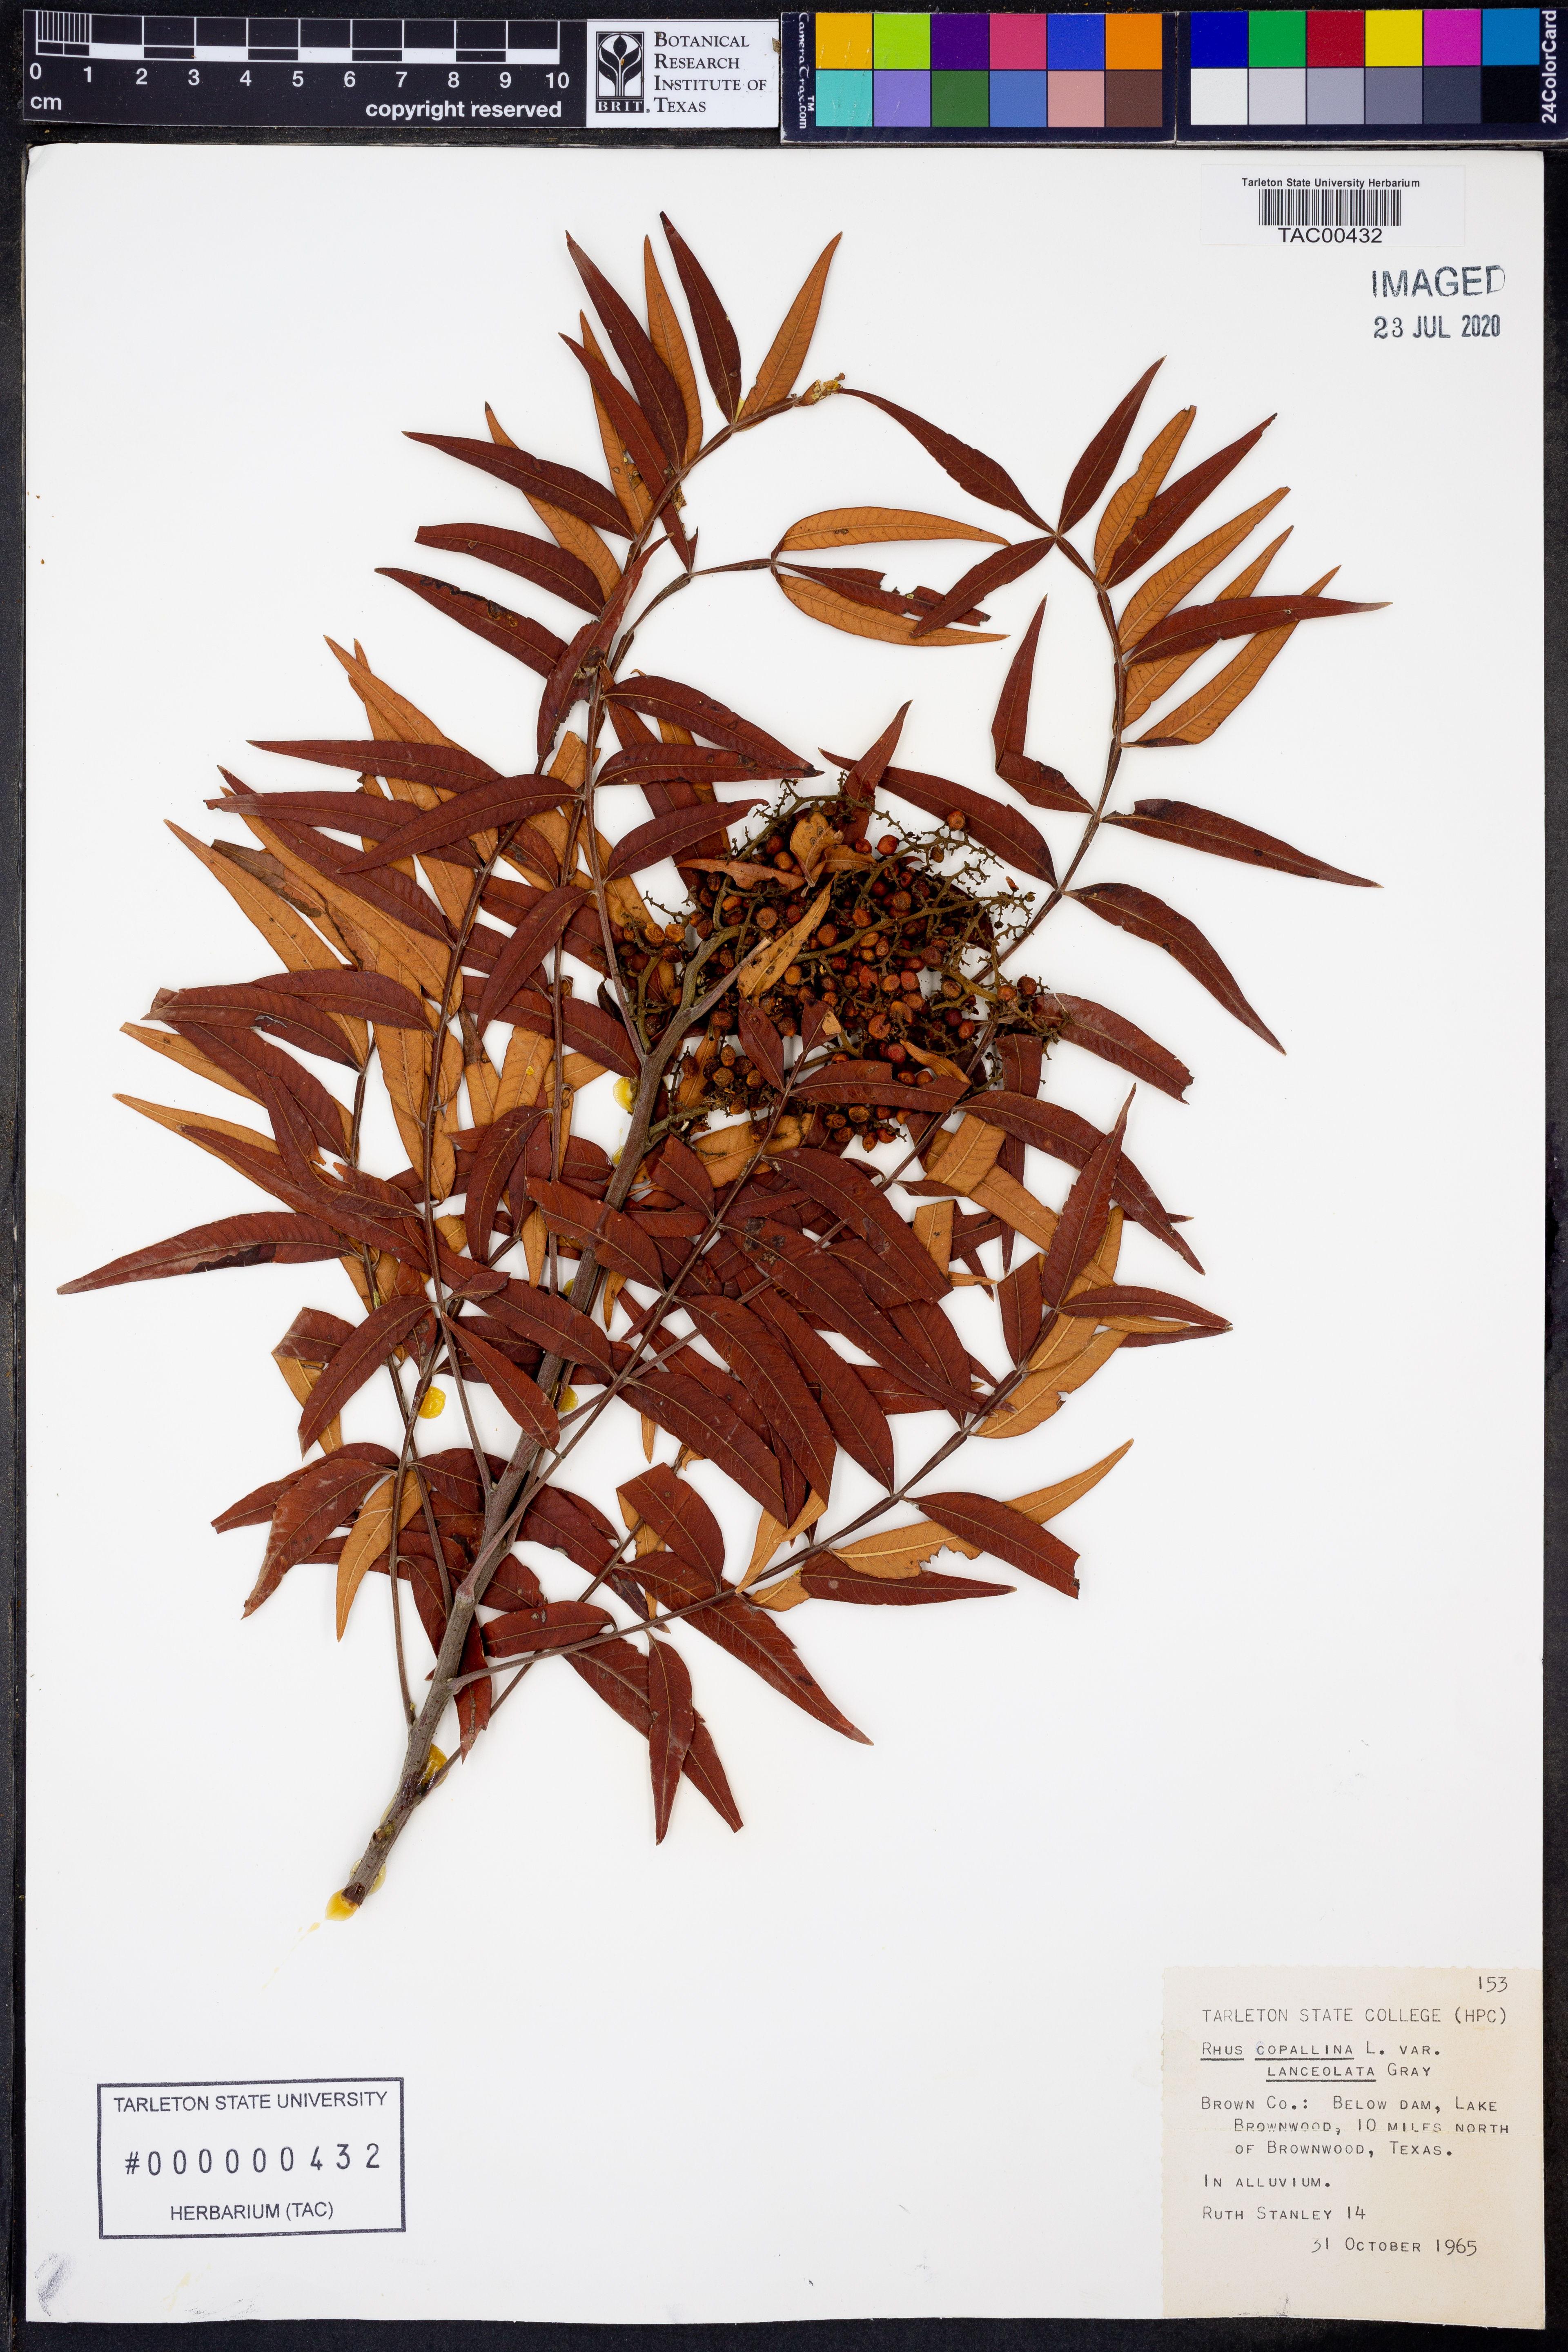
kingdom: Plantae
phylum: Tracheophyta
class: Magnoliopsida
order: Sapindales
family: Anacardiaceae
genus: Rhus
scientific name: Rhus lanceolata
